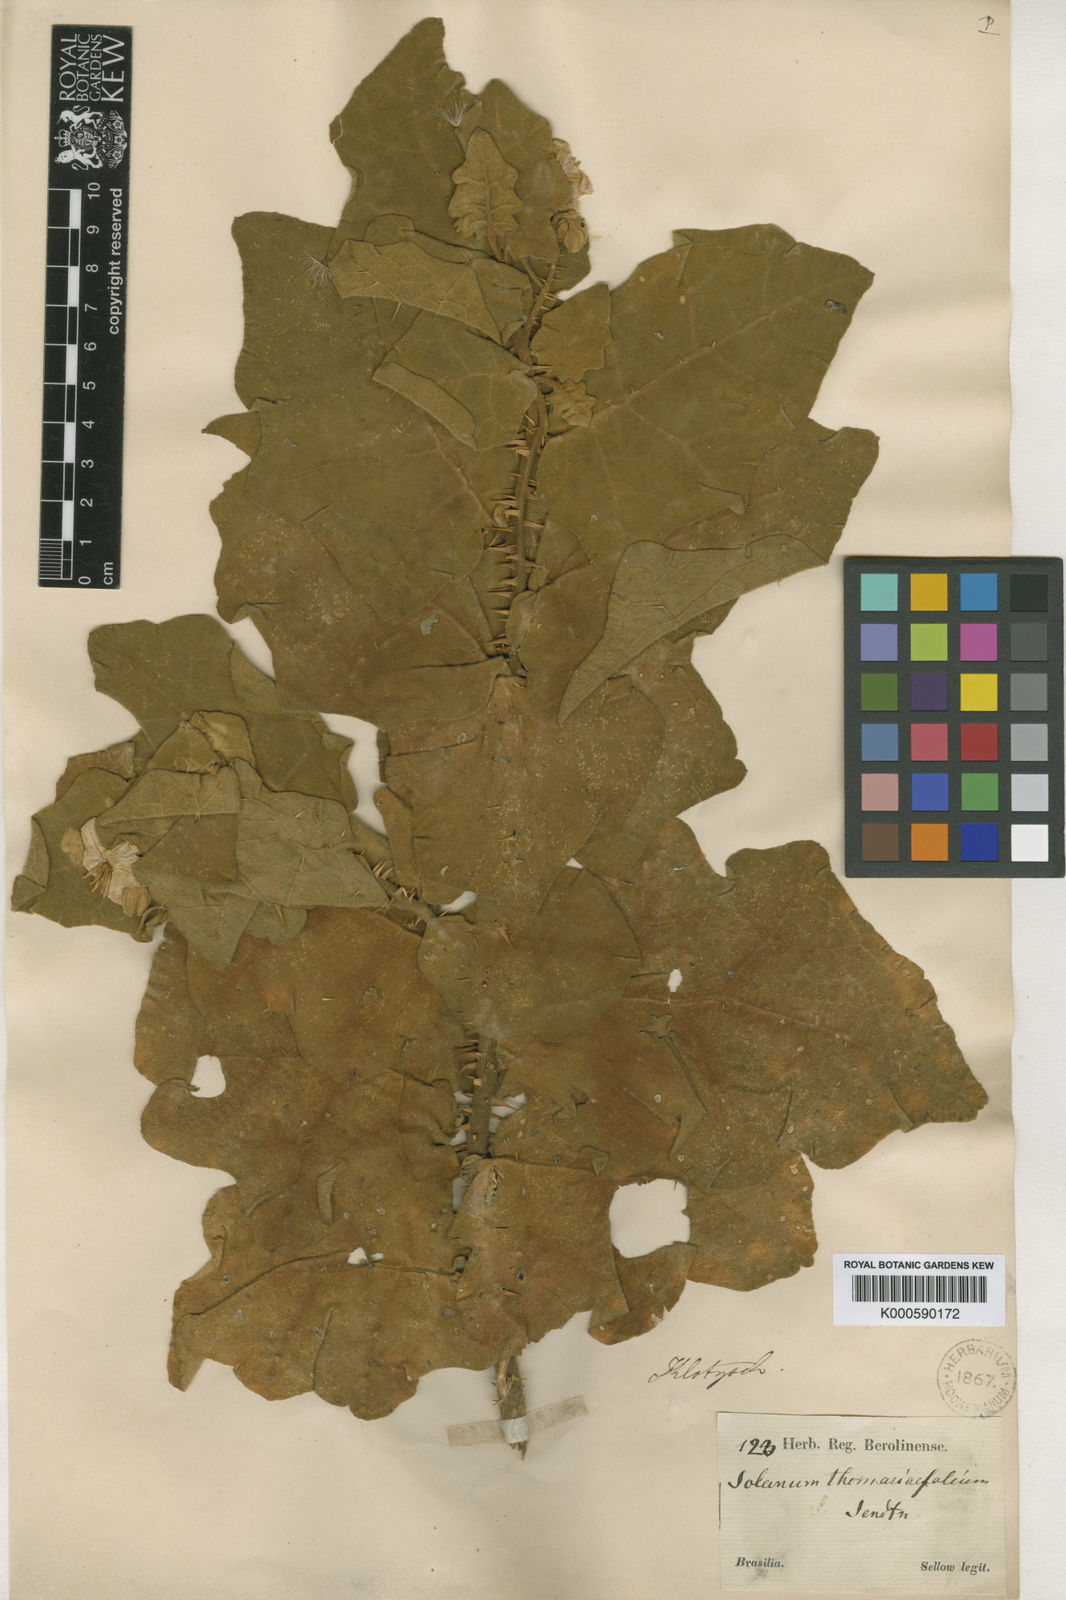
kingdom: Plantae
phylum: Tracheophyta
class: Magnoliopsida
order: Solanales
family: Solanaceae
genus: Solanum
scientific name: Solanum thomasiifolium
